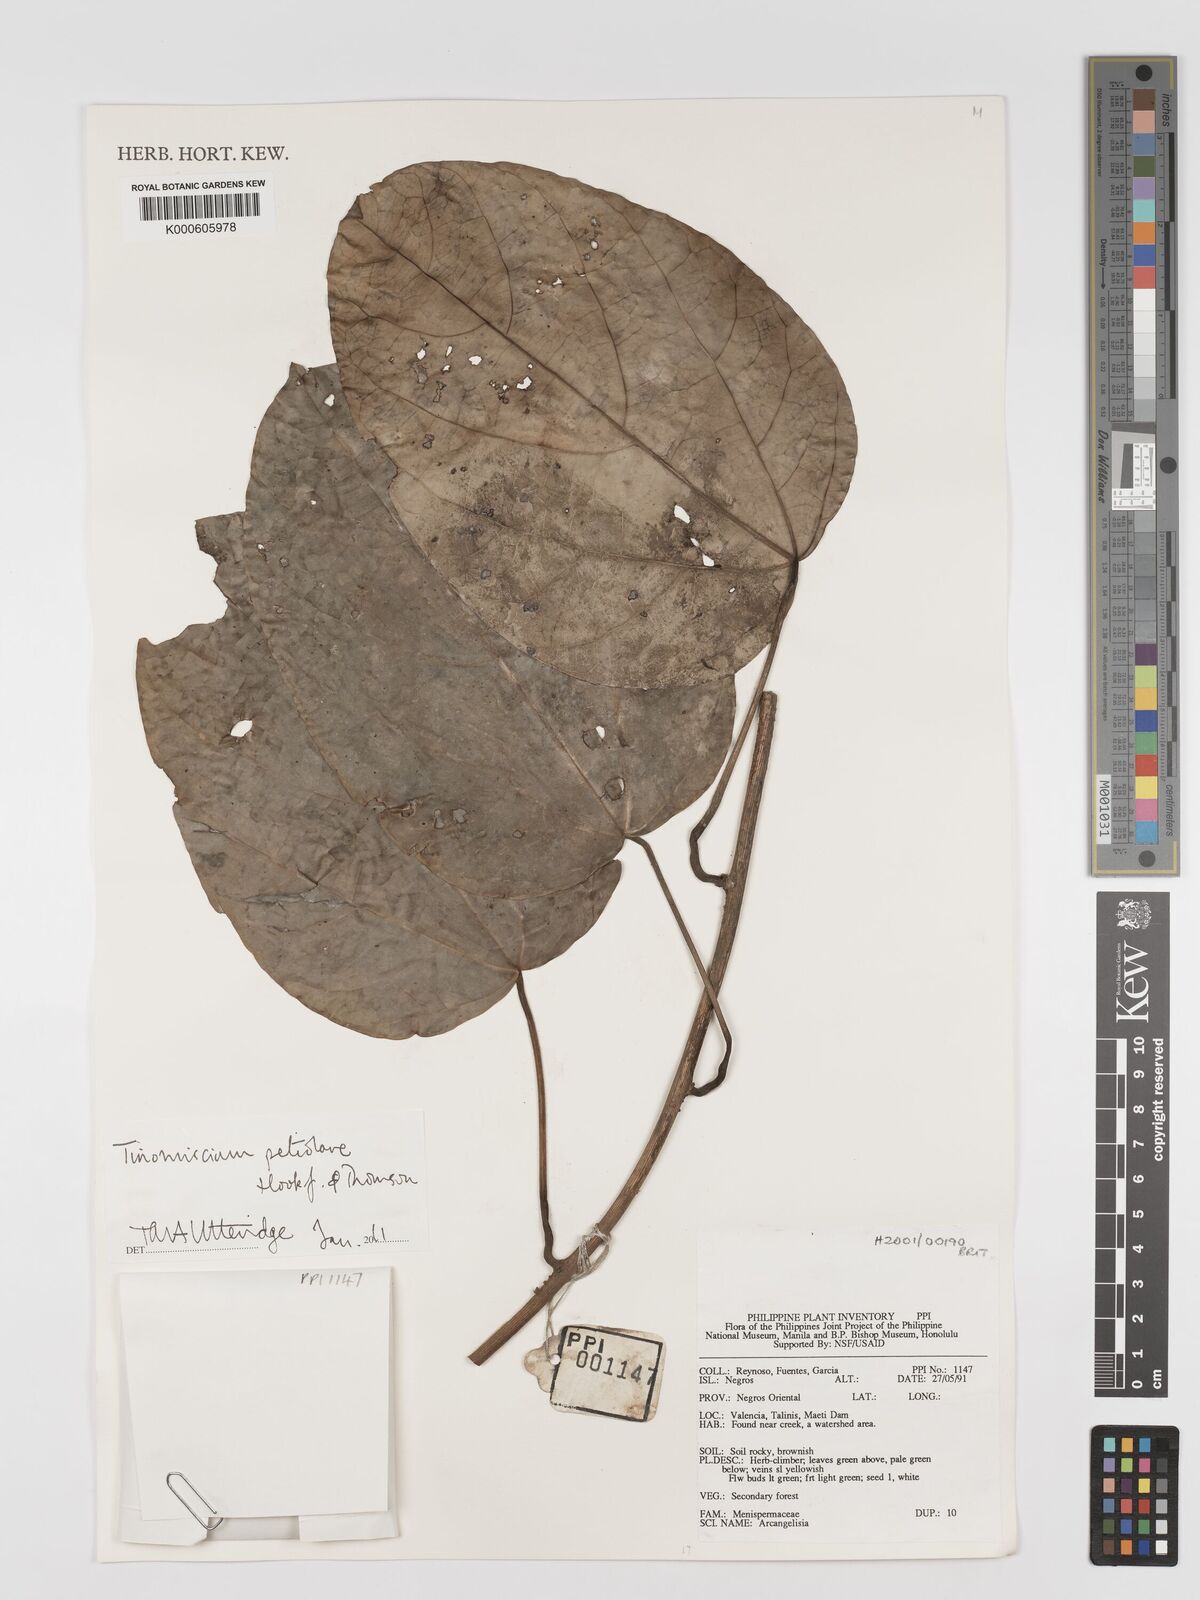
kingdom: Plantae
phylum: Tracheophyta
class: Magnoliopsida
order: Ranunculales
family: Menispermaceae
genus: Tinomiscium
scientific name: Tinomiscium petiolare
